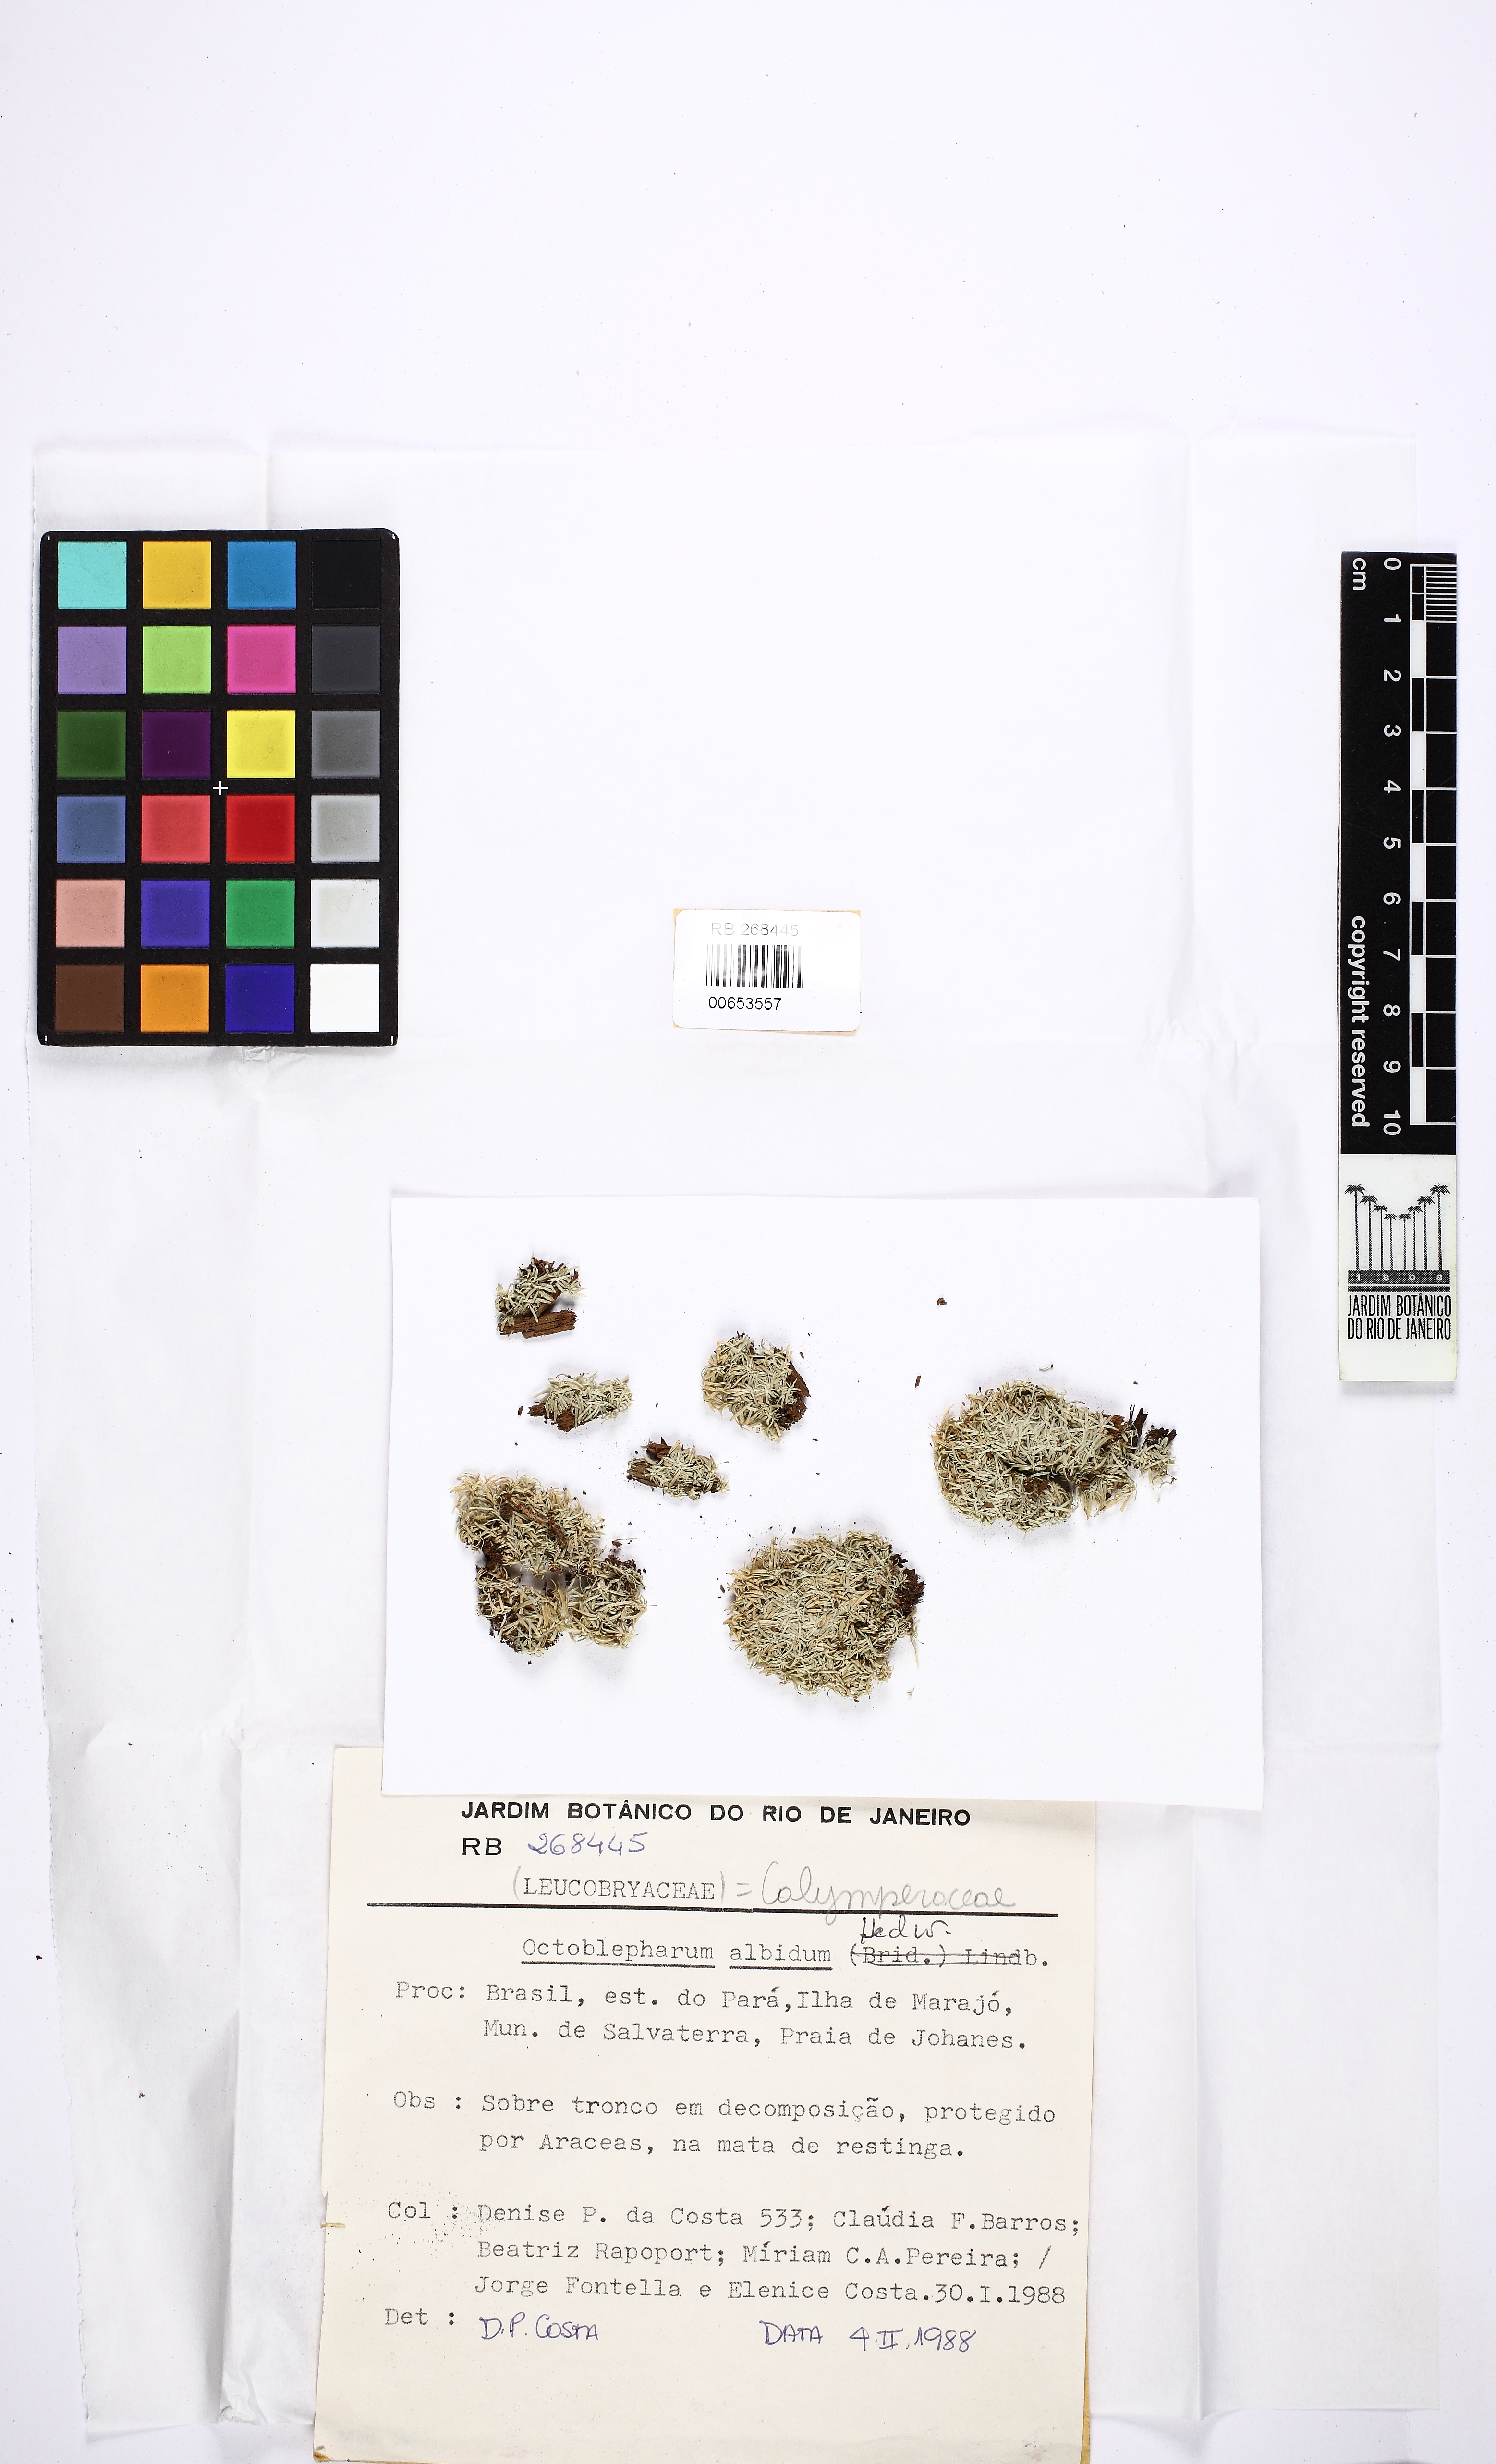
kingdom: Plantae
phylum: Bryophyta
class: Bryopsida
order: Dicranales
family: Octoblepharaceae
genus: Octoblepharum
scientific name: Octoblepharum albidum
